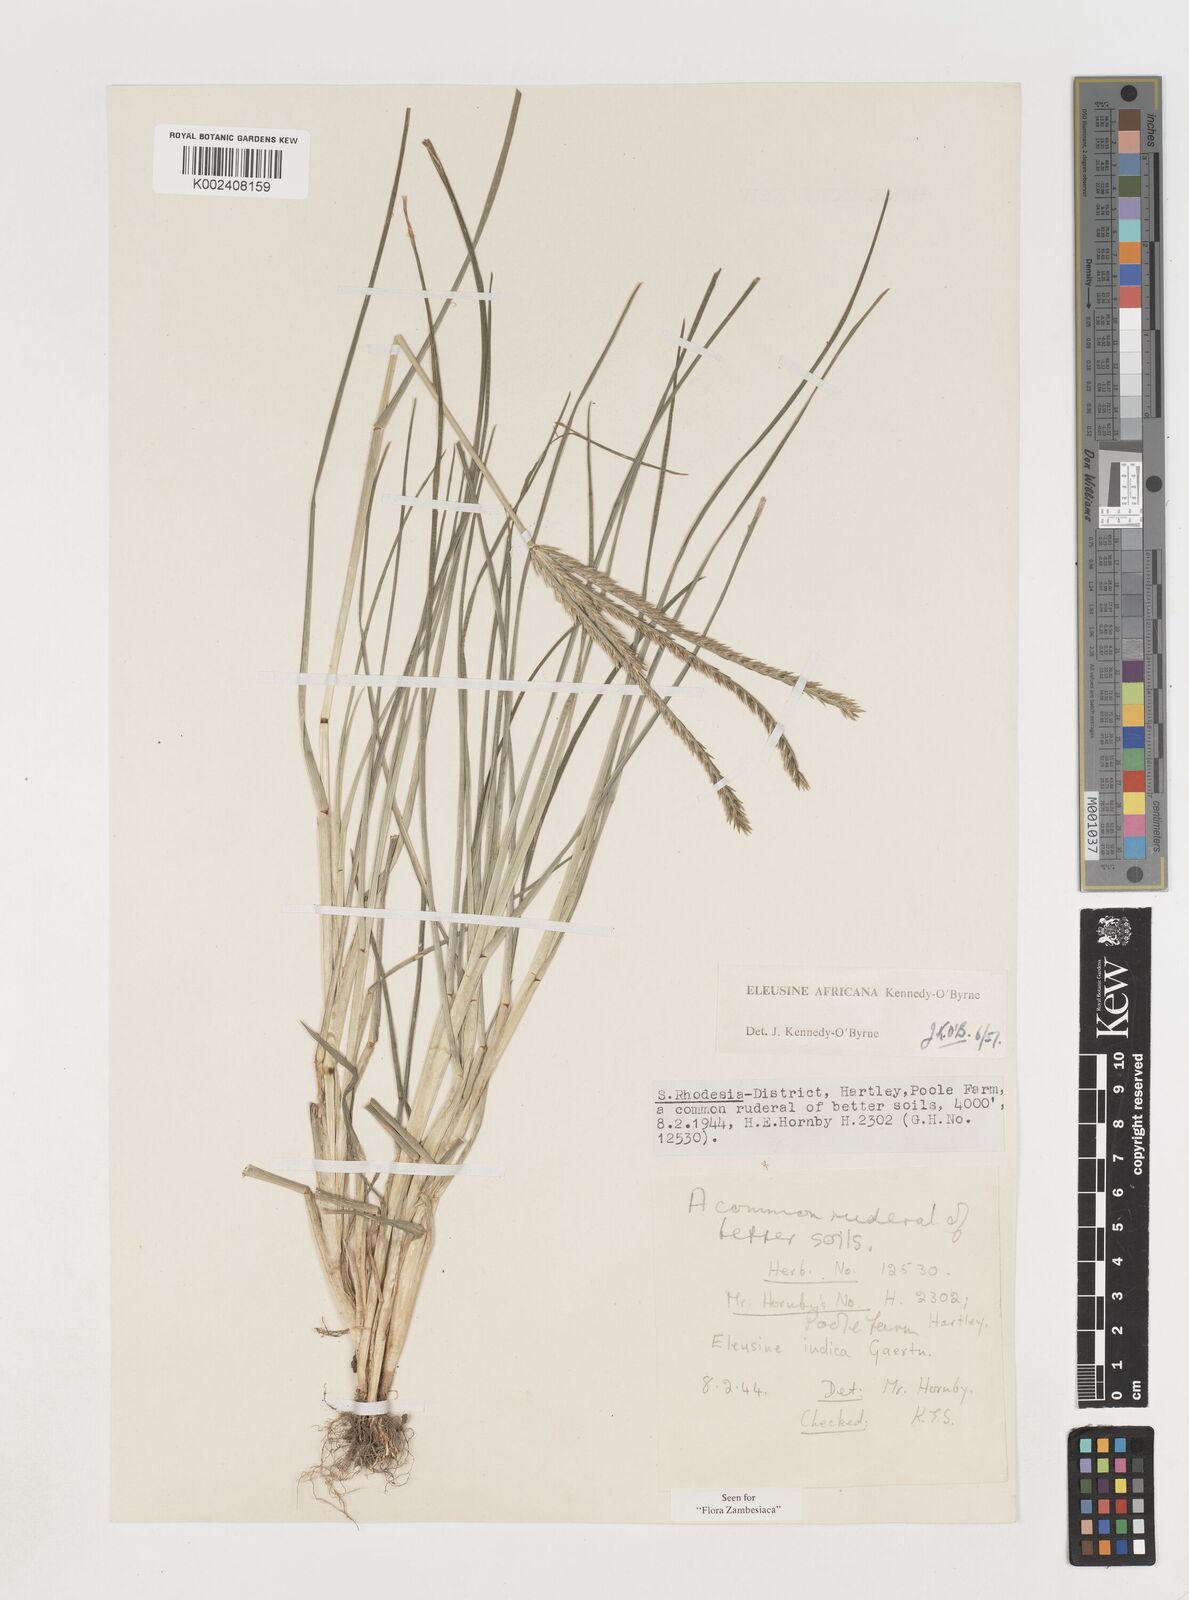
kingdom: Plantae
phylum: Tracheophyta
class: Liliopsida
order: Poales
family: Poaceae
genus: Eleusine
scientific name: Eleusine africana
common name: Wild african finger millet
